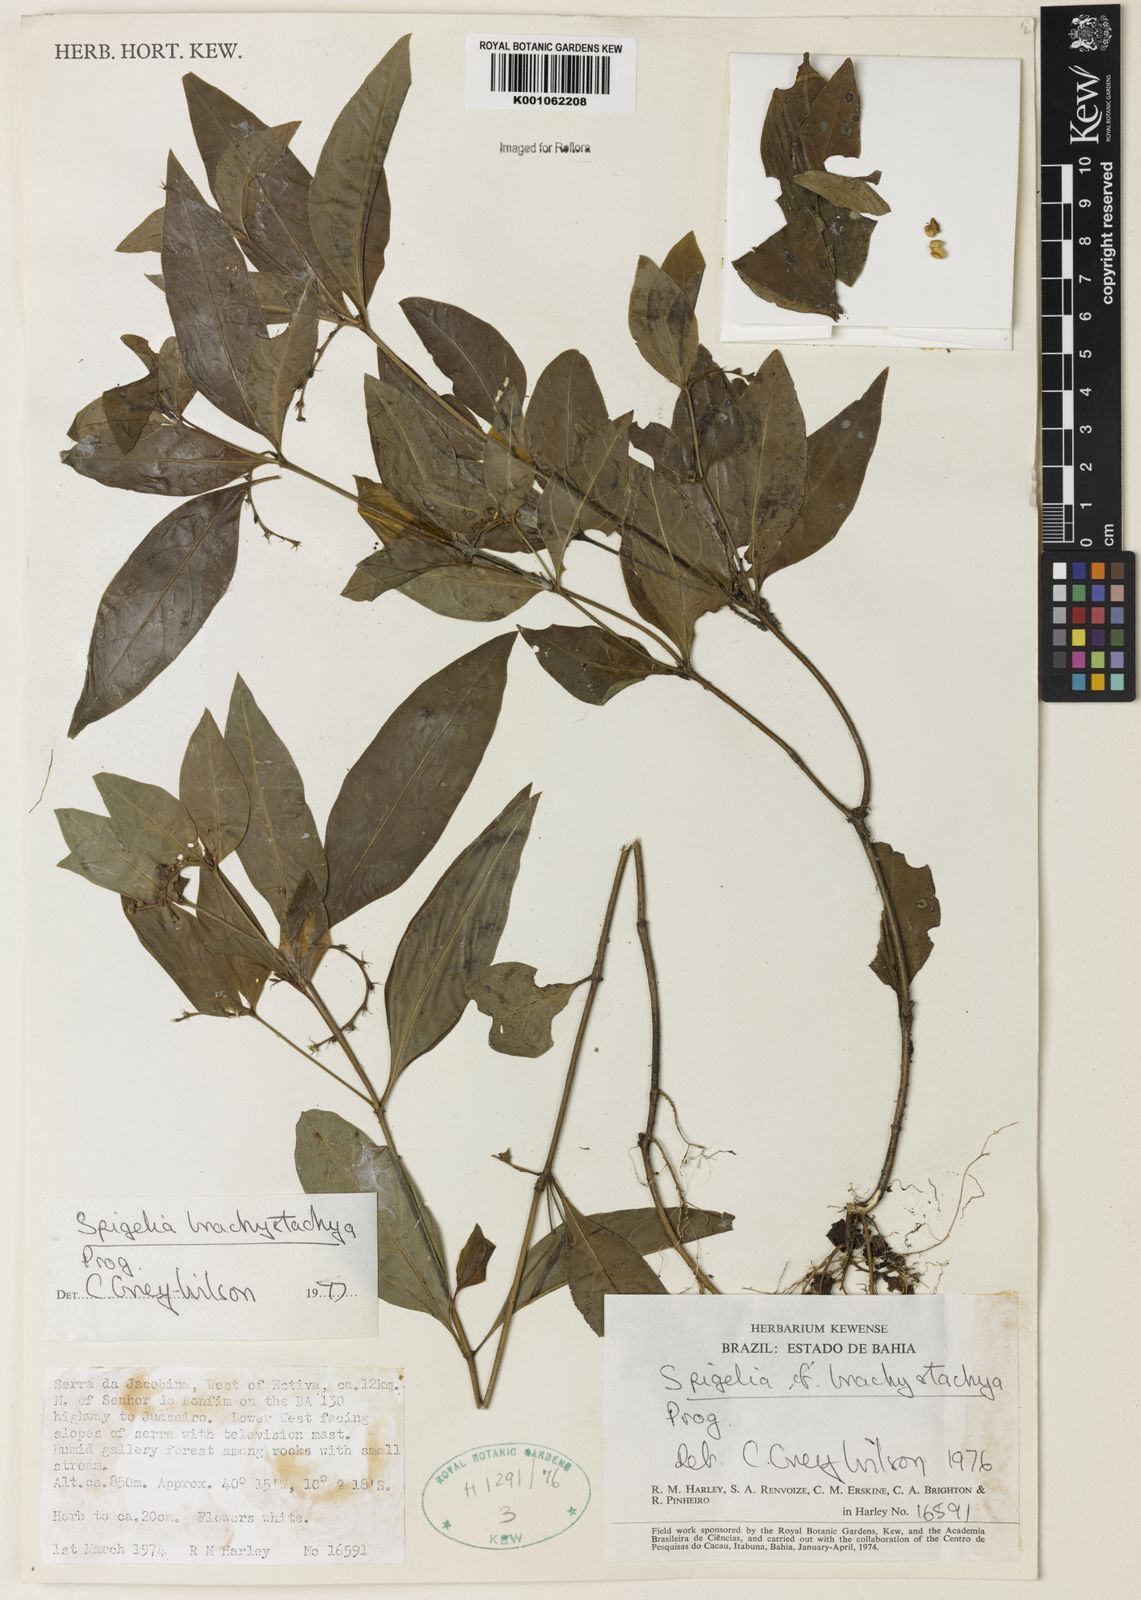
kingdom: Plantae
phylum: Tracheophyta
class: Magnoliopsida
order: Gentianales
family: Loganiaceae
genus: Spigelia
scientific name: Spigelia laurina
